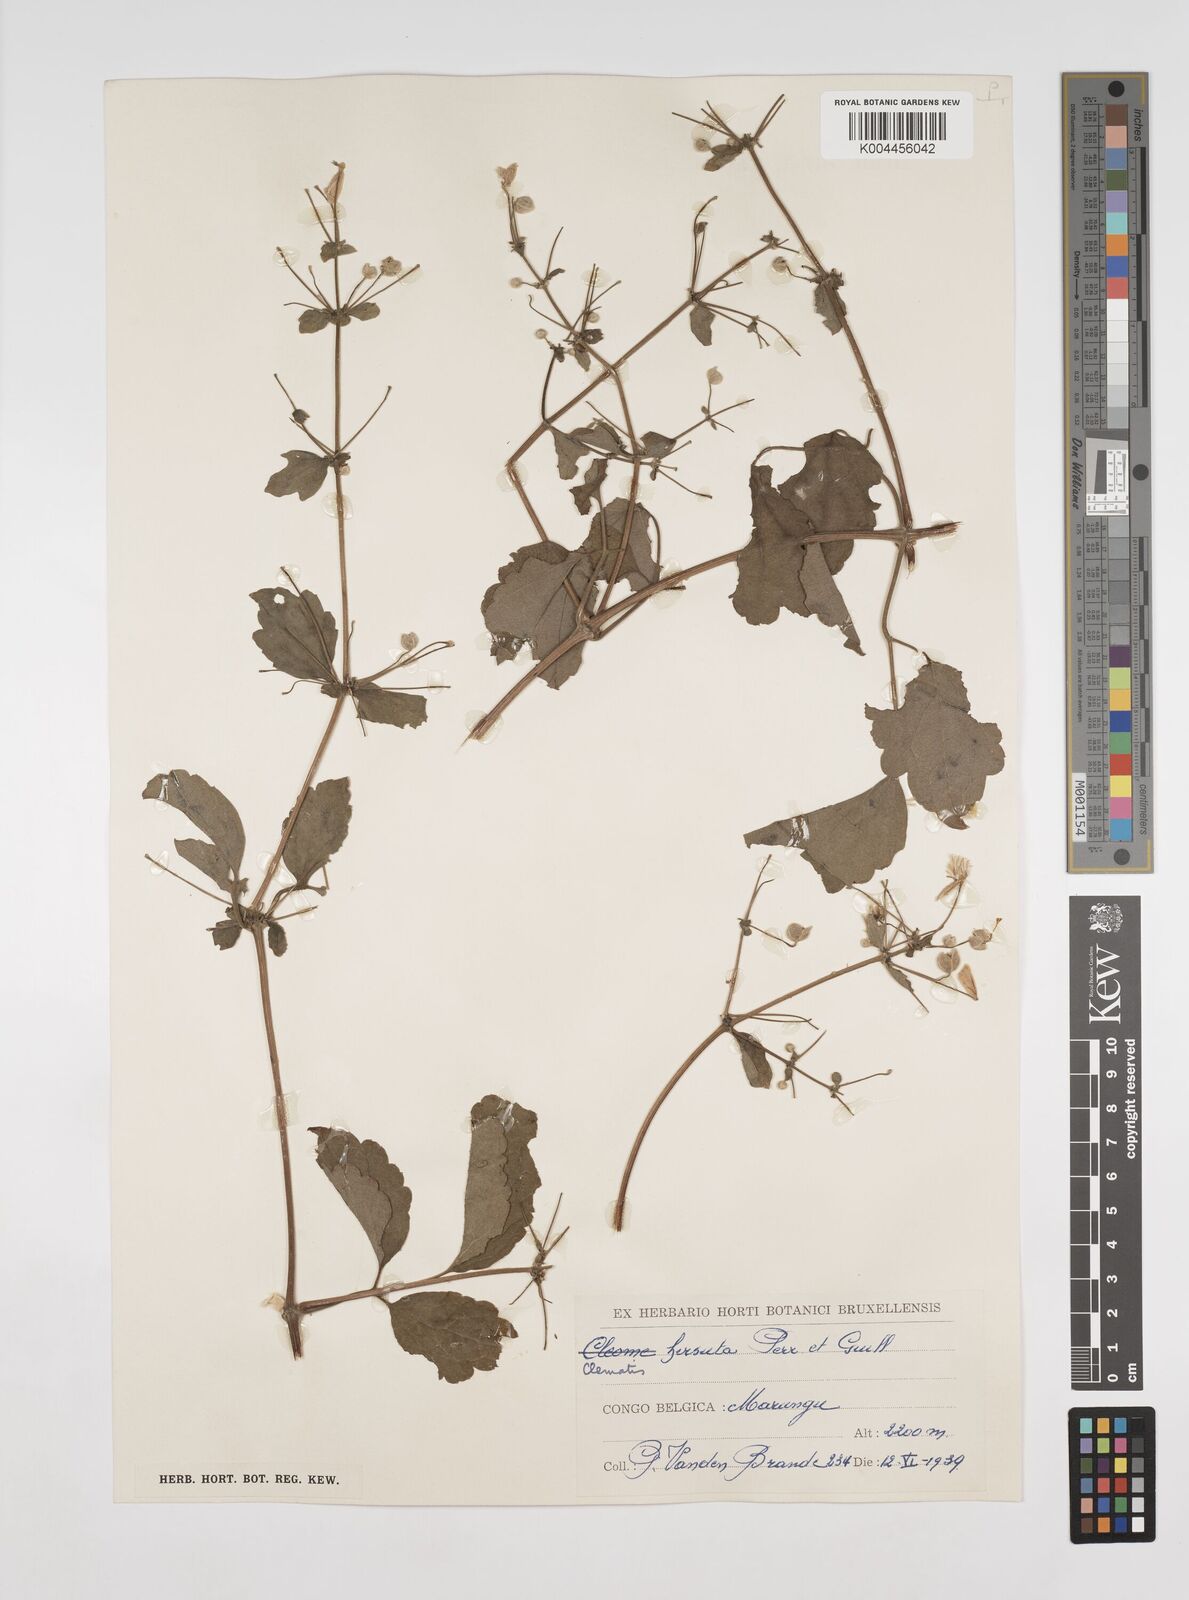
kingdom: Plantae
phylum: Tracheophyta
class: Magnoliopsida
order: Ranunculales
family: Ranunculaceae
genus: Clematis
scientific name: Clematis hirsuta
